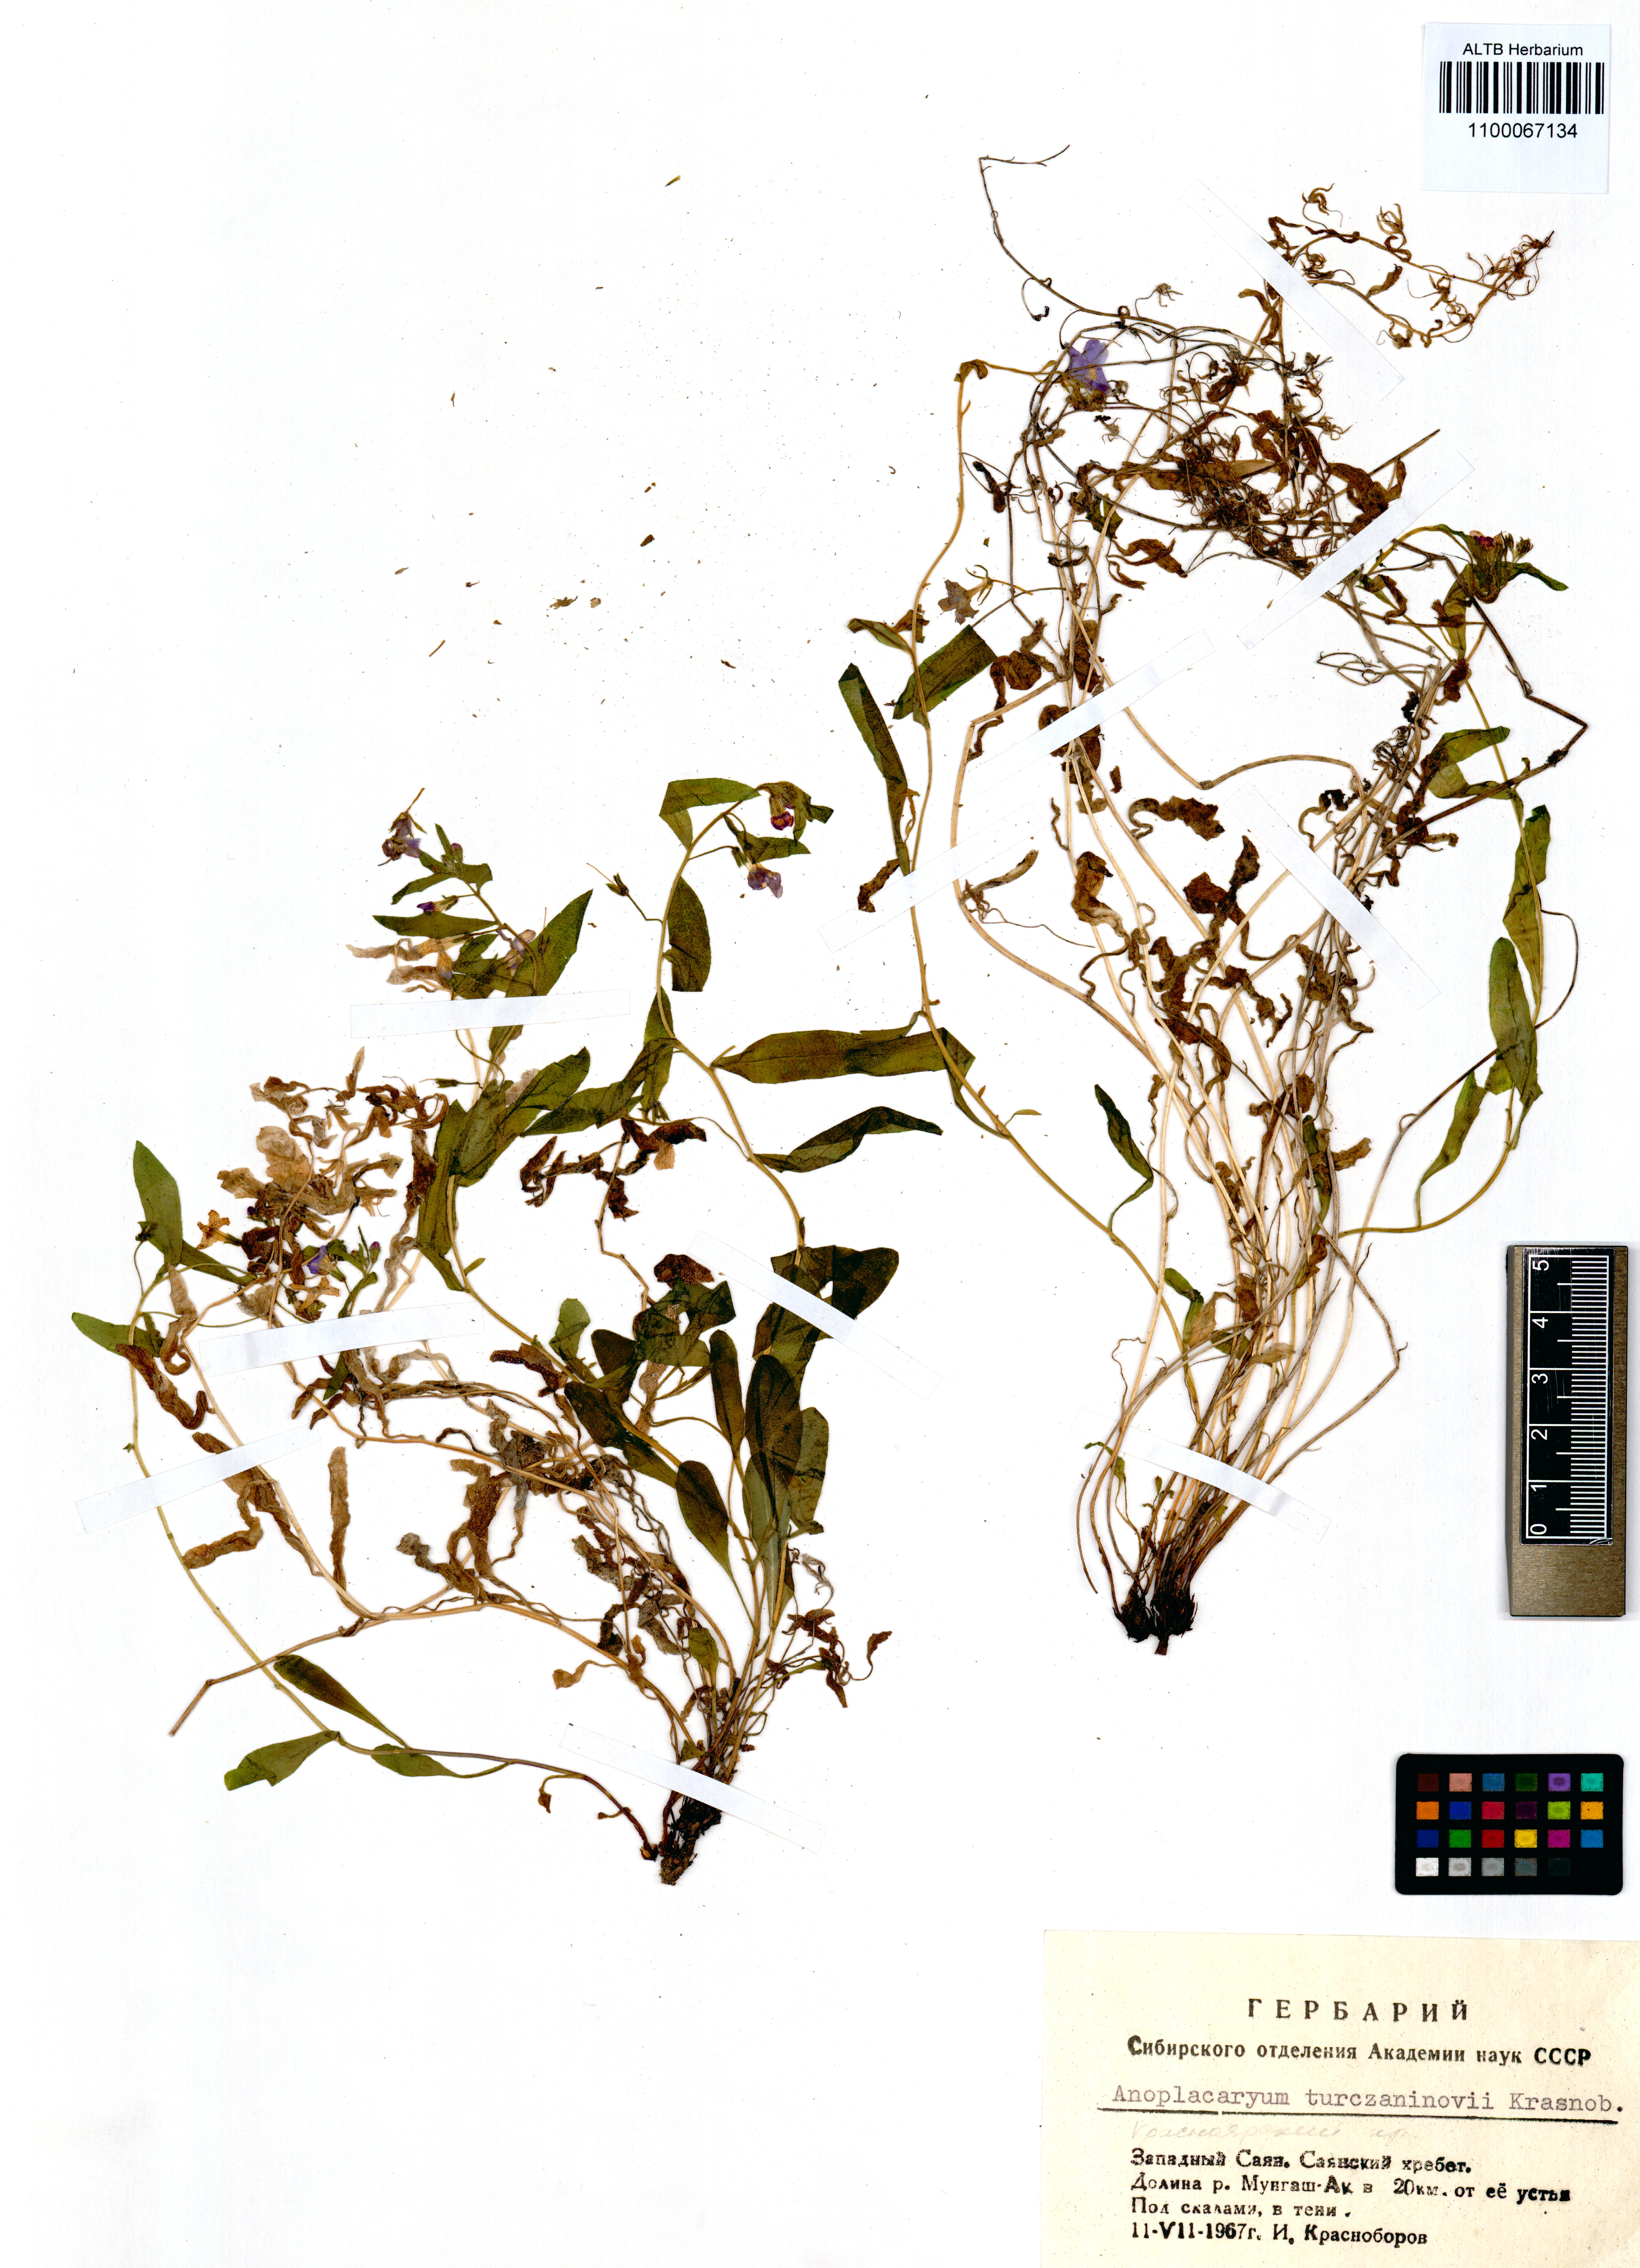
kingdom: Plantae
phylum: Tracheophyta
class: Magnoliopsida
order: Boraginales
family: Boraginaceae
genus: Anoplocaryum
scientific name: Anoplocaryum turczaninovii
